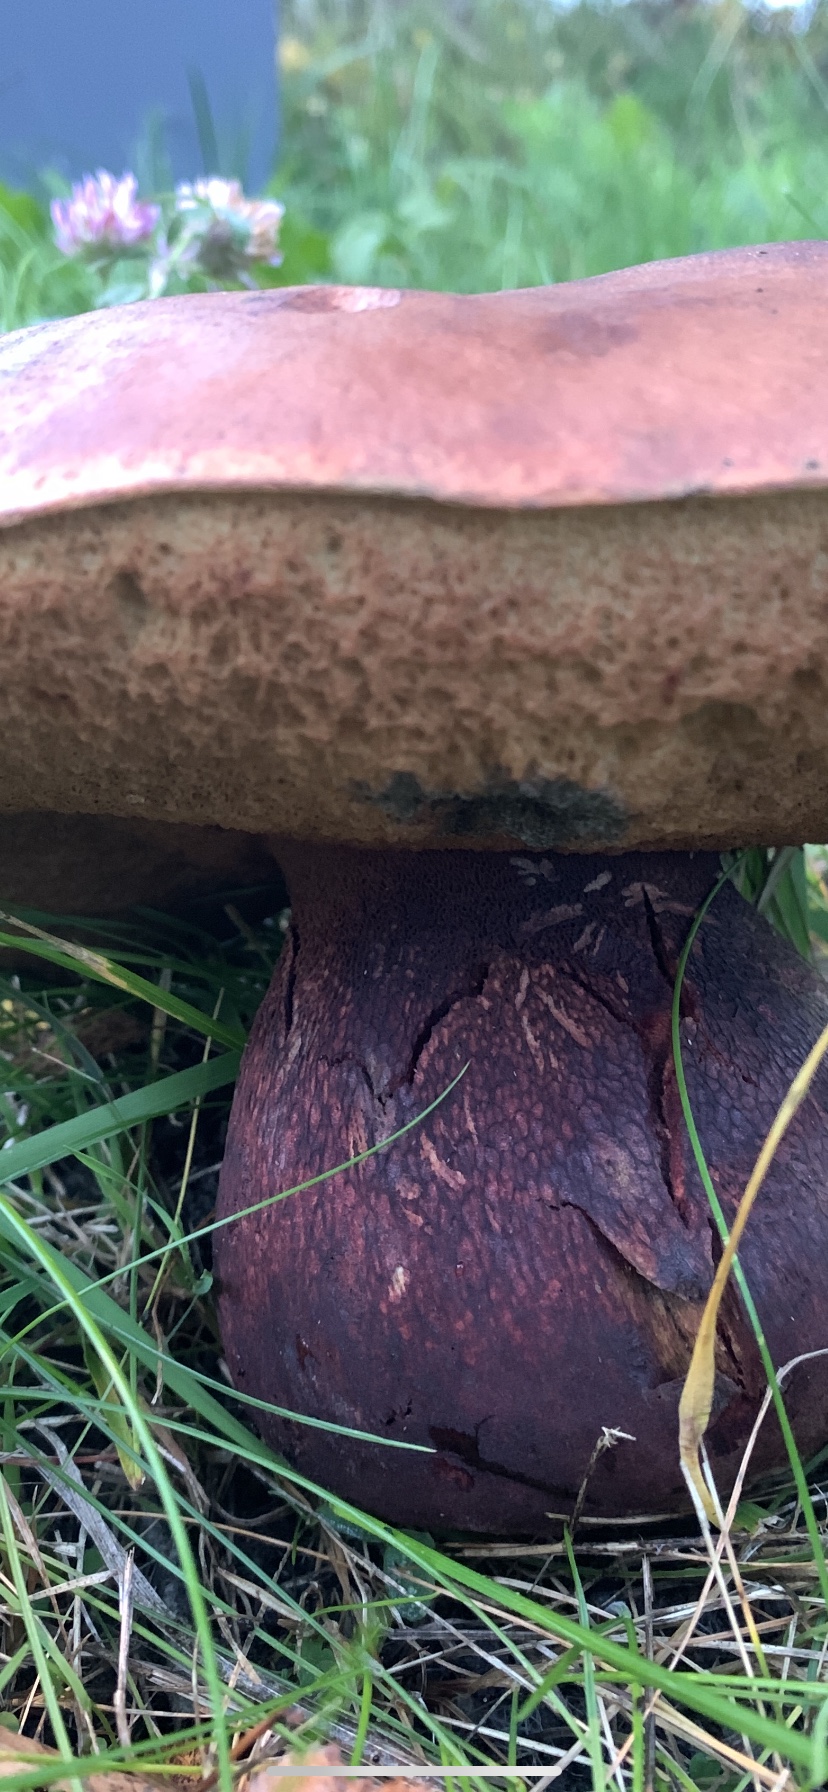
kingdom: Fungi
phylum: Basidiomycota
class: Agaricomycetes
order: Boletales
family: Boletaceae
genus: Suillellus
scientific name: Suillellus luridus
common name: netstokket indigorørhat
